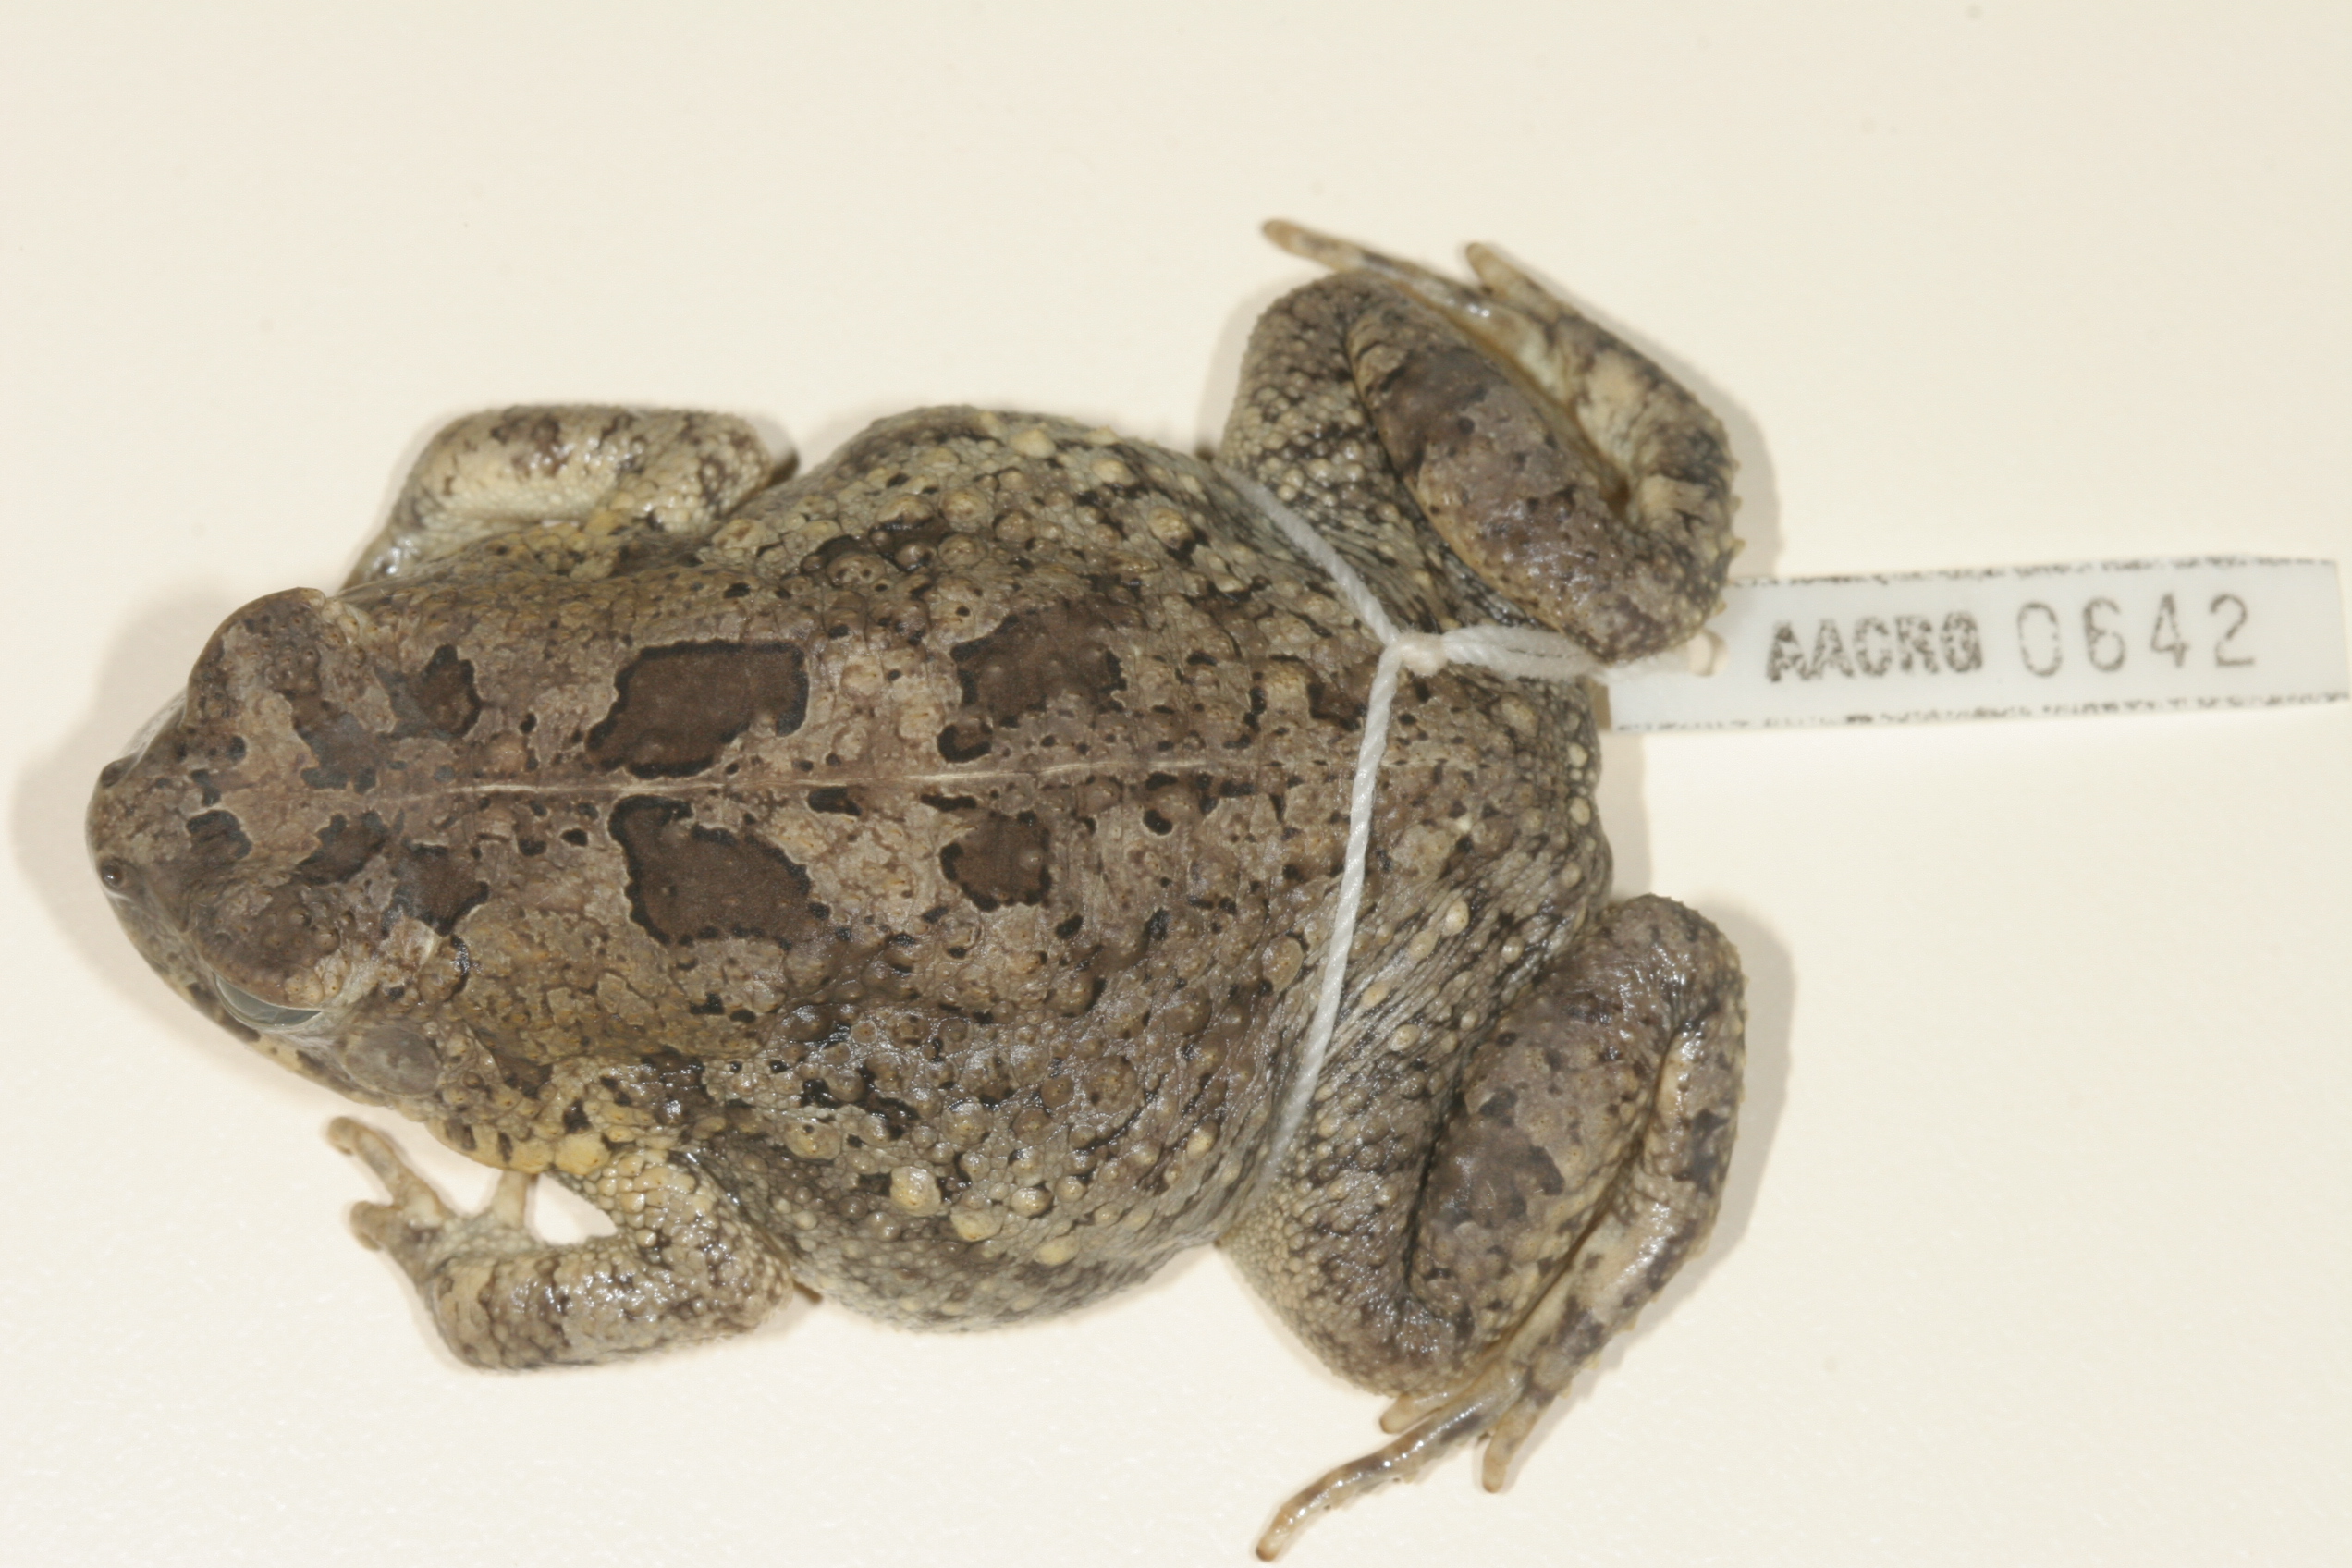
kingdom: Animalia
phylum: Chordata
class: Amphibia
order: Anura
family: Bufonidae
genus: Sclerophrys
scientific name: Sclerophrys maculata
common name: Hallowell's toad
